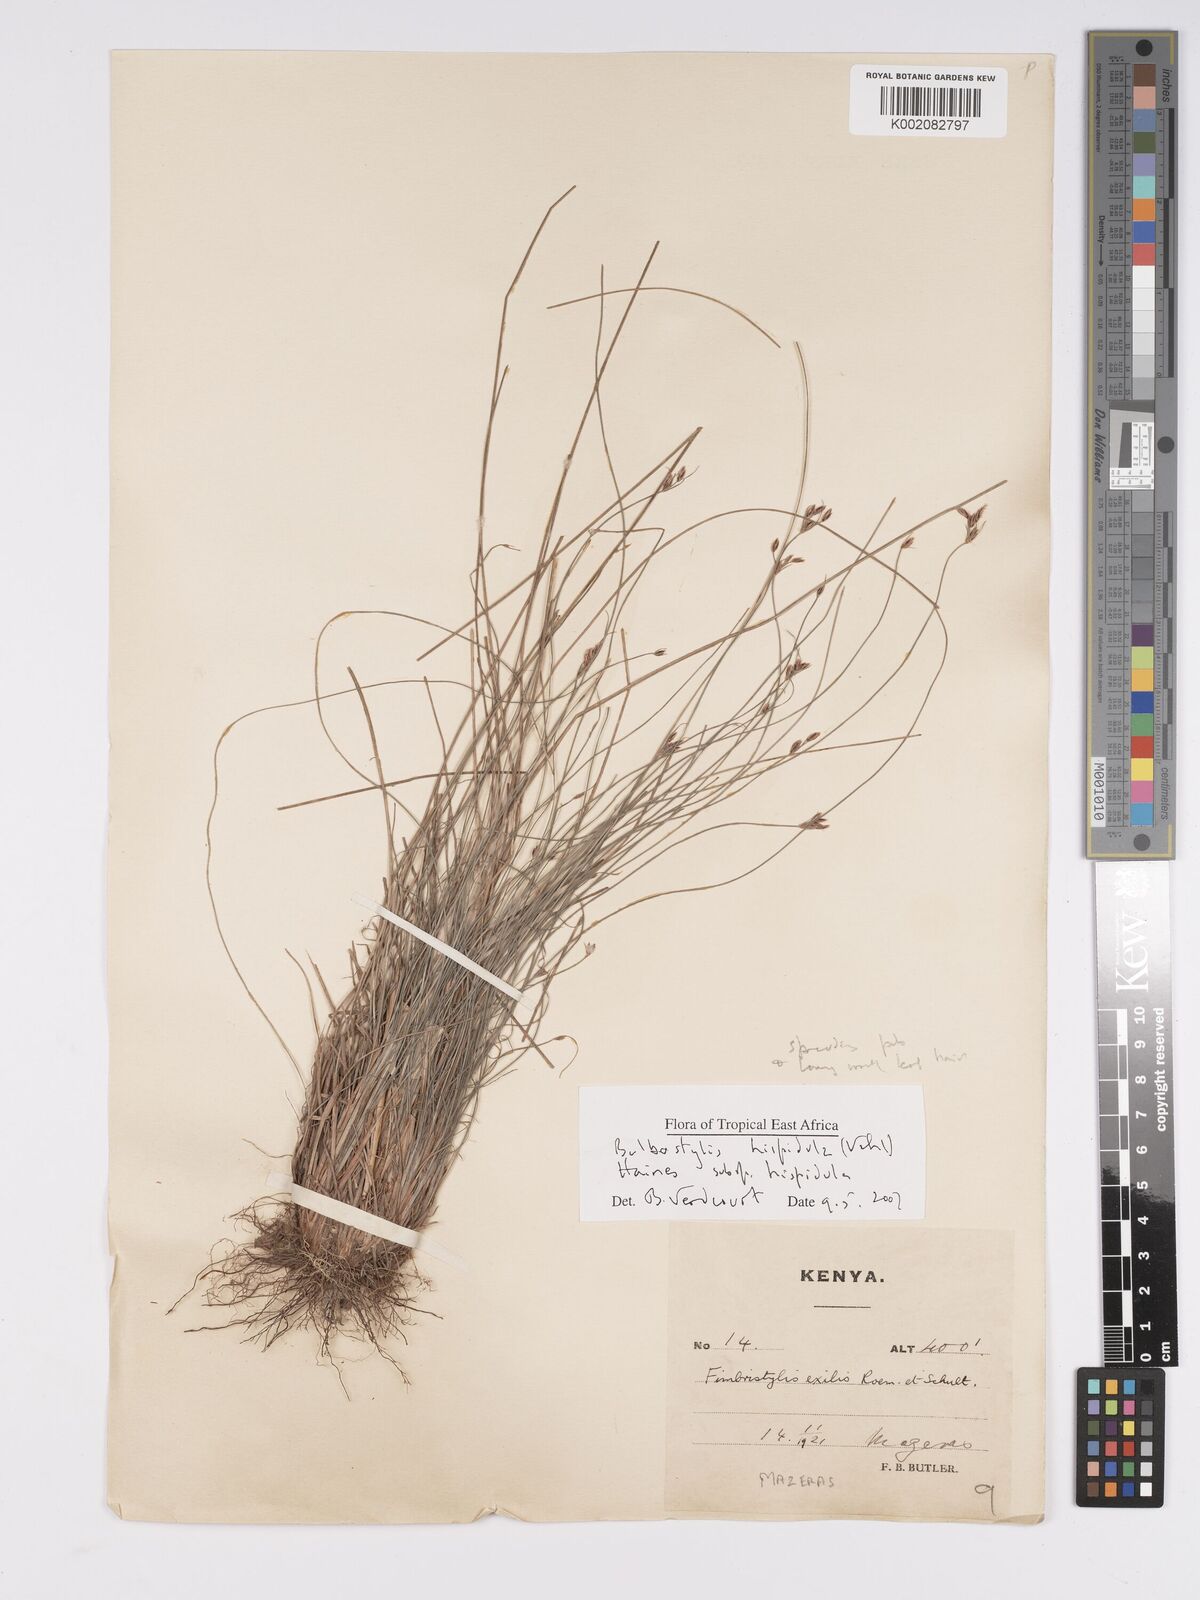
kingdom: Plantae
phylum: Tracheophyta
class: Liliopsida
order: Poales
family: Cyperaceae
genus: Bulbostylis
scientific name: Bulbostylis hispidula
